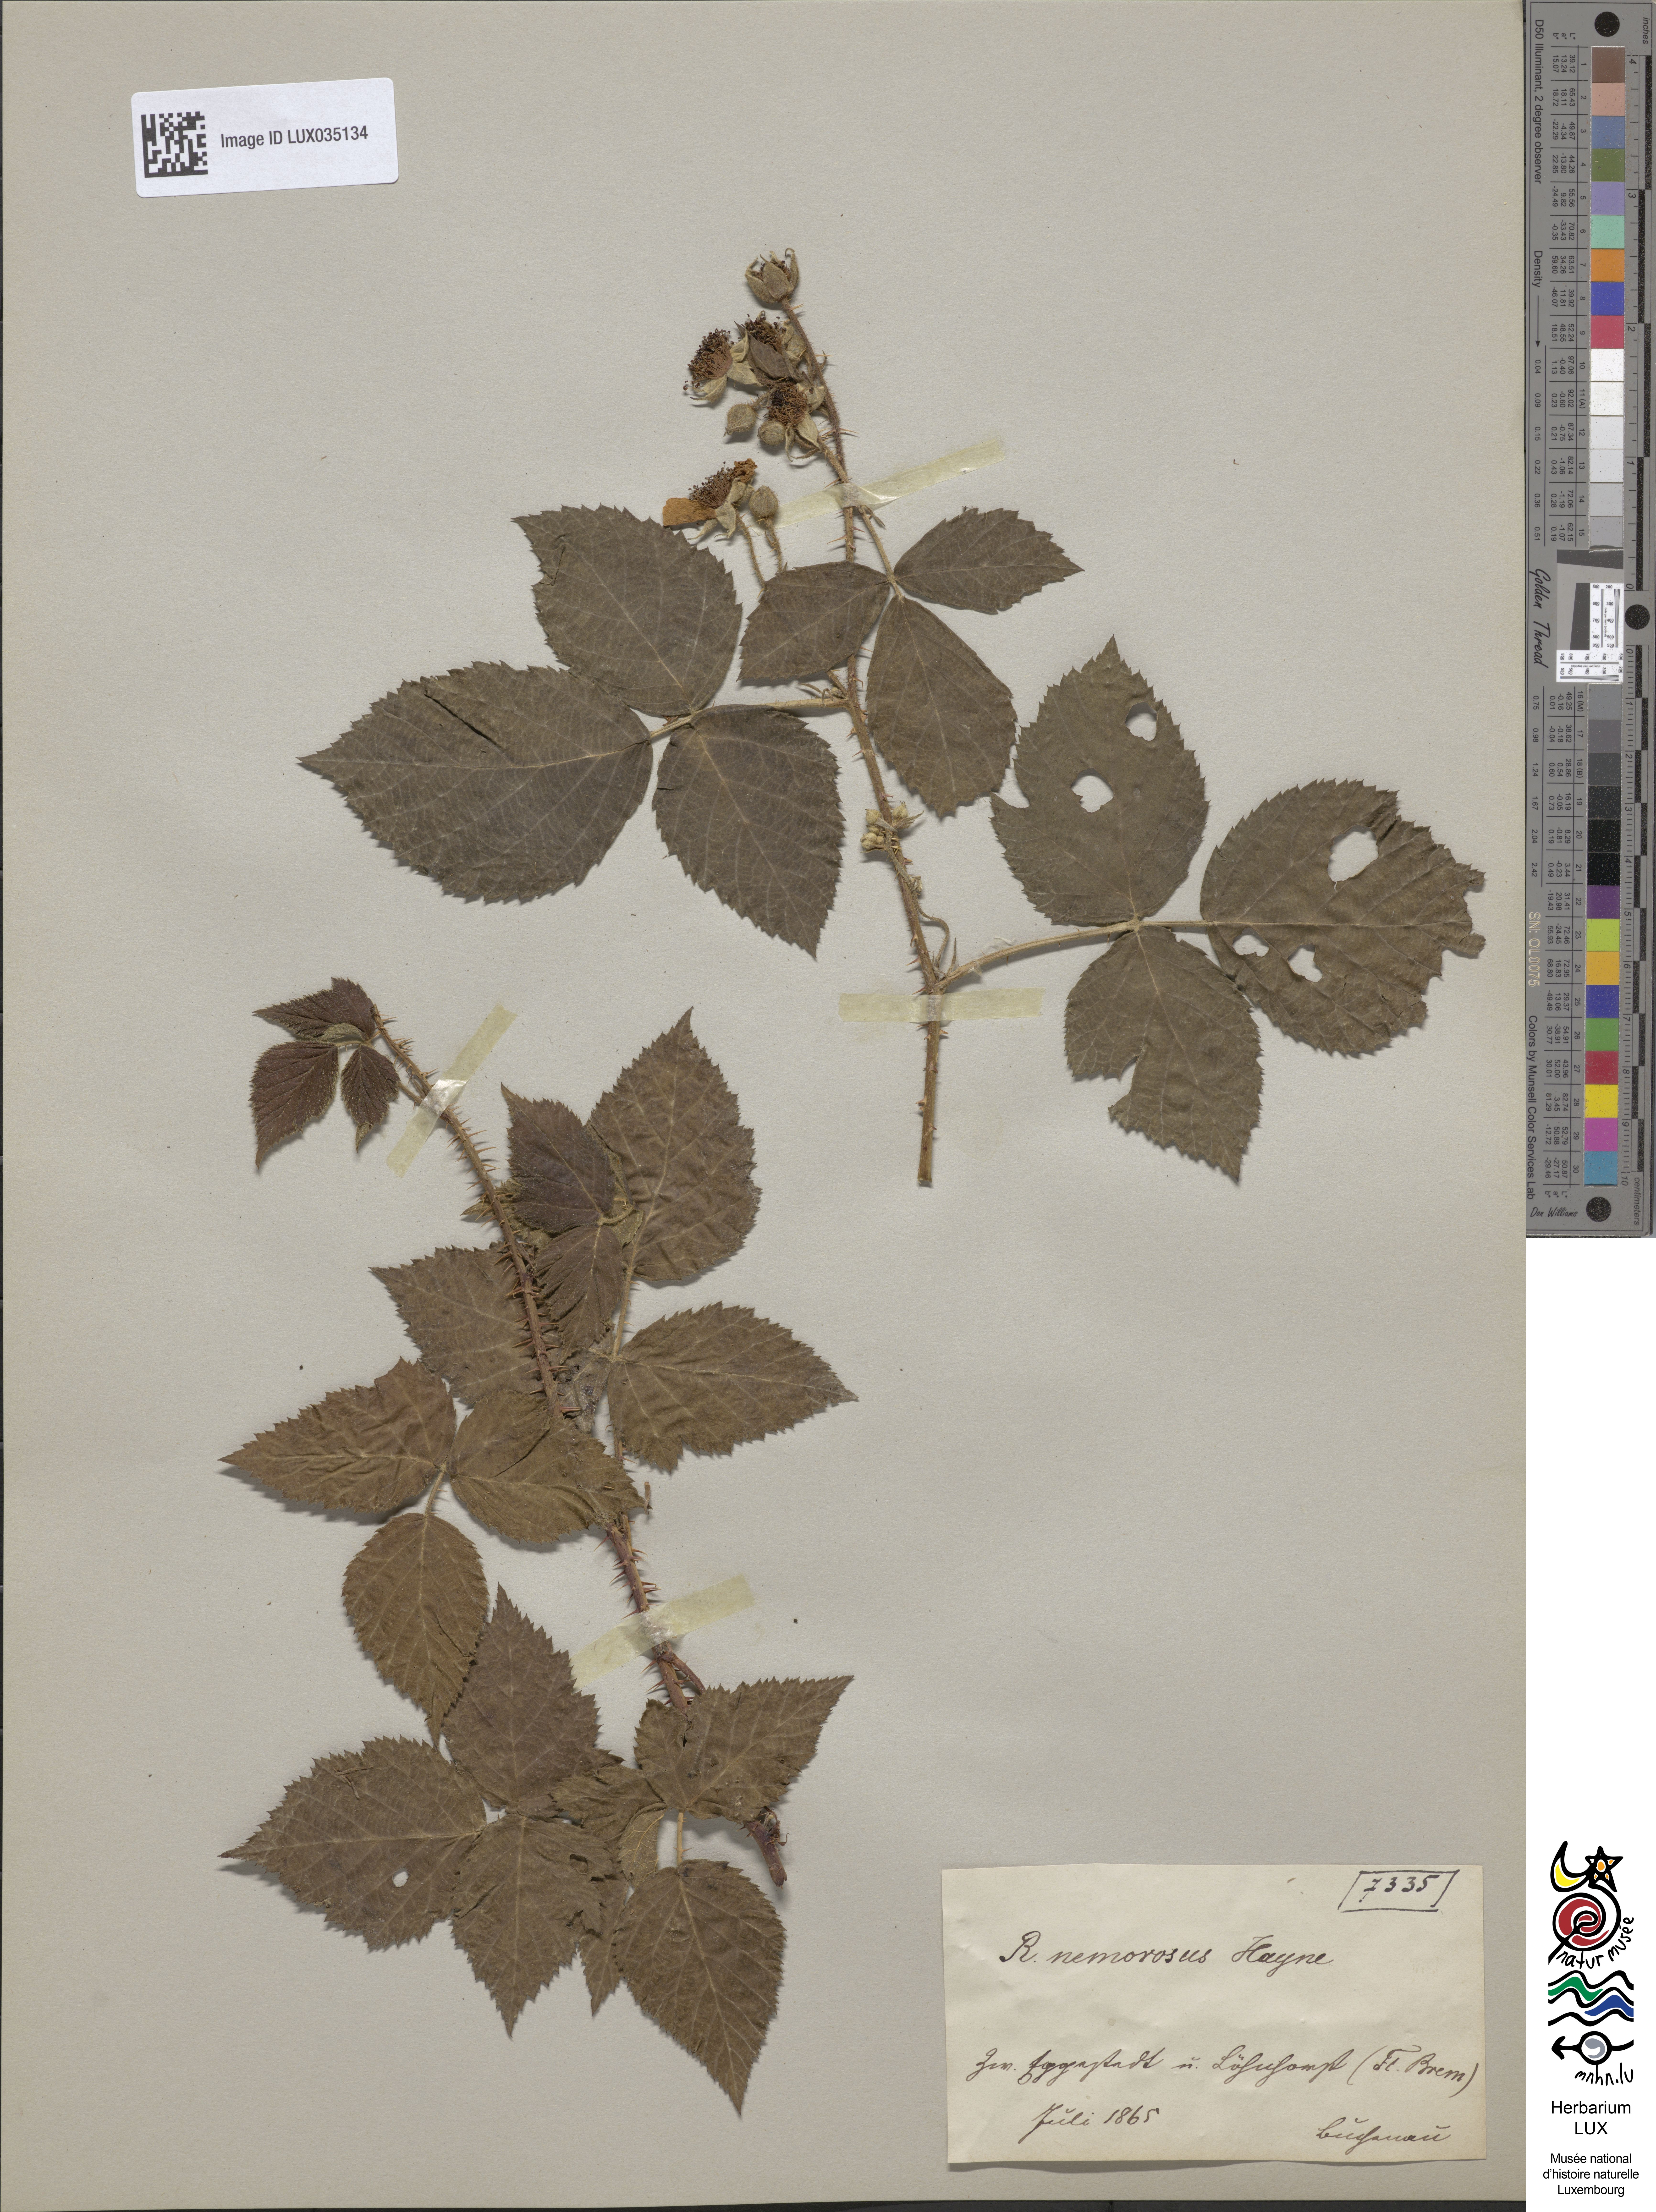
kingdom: Plantae
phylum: Tracheophyta
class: Magnoliopsida
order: Rosales
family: Rosaceae
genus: Rubus
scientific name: Rubus nemorosus
